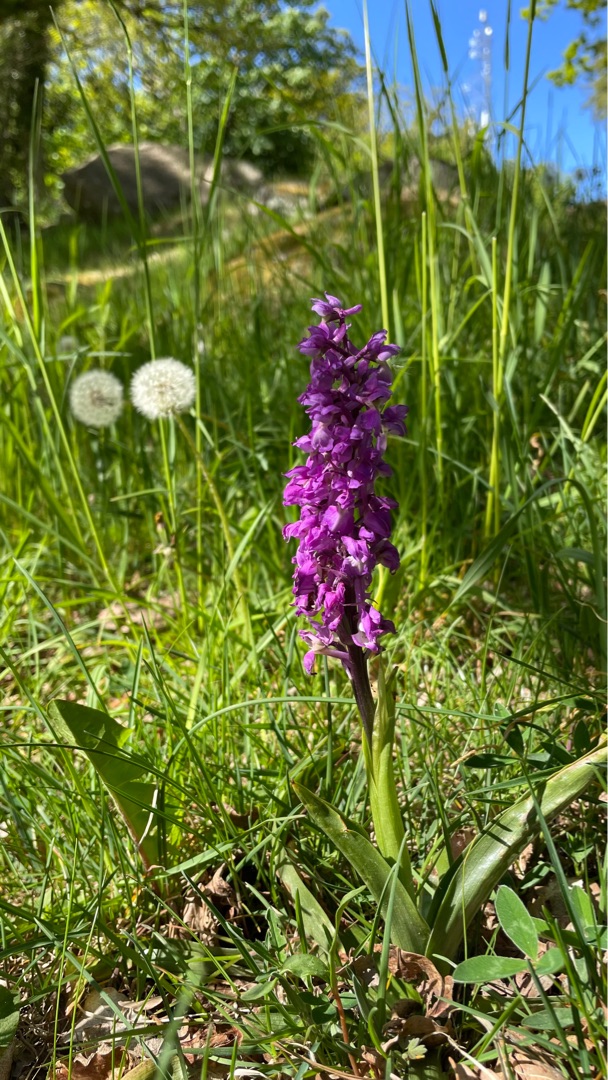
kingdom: Plantae
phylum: Tracheophyta
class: Liliopsida
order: Asparagales
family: Orchidaceae
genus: Orchis
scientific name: Orchis mascula
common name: Tyndakset gøgeurt
